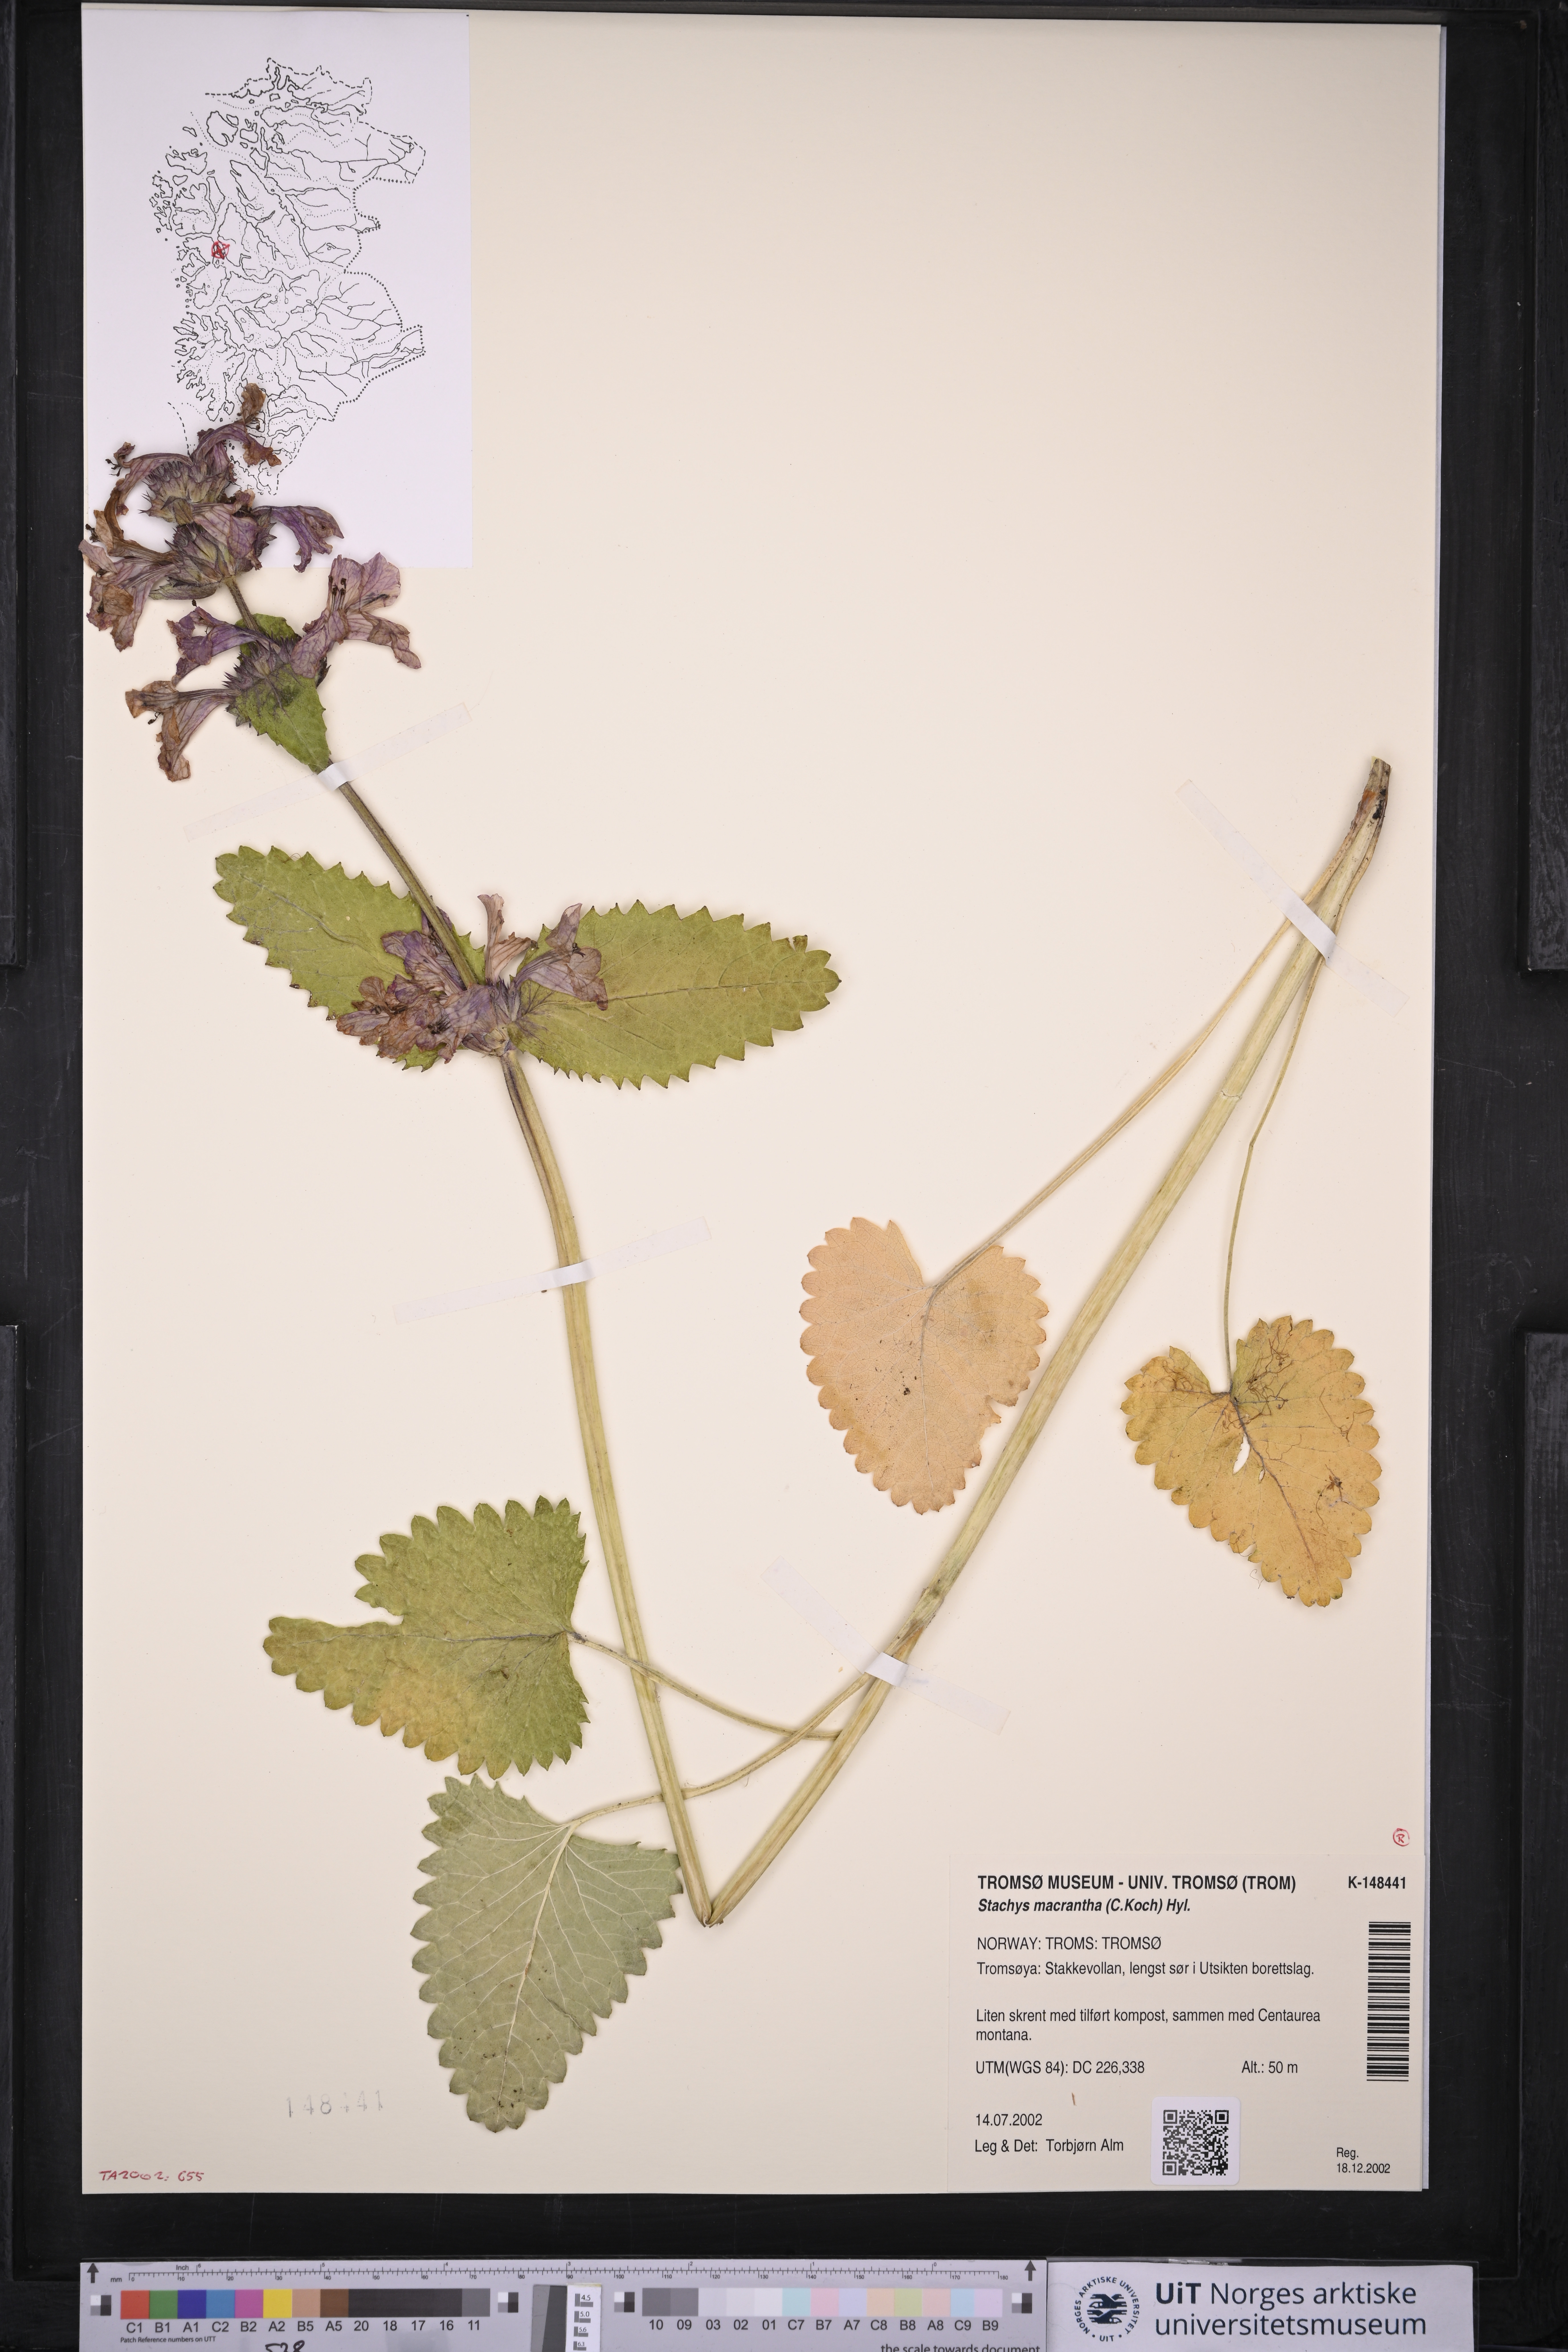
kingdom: Plantae
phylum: Tracheophyta
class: Magnoliopsida
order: Lamiales
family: Lamiaceae
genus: Betonica
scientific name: Betonica macrantha
